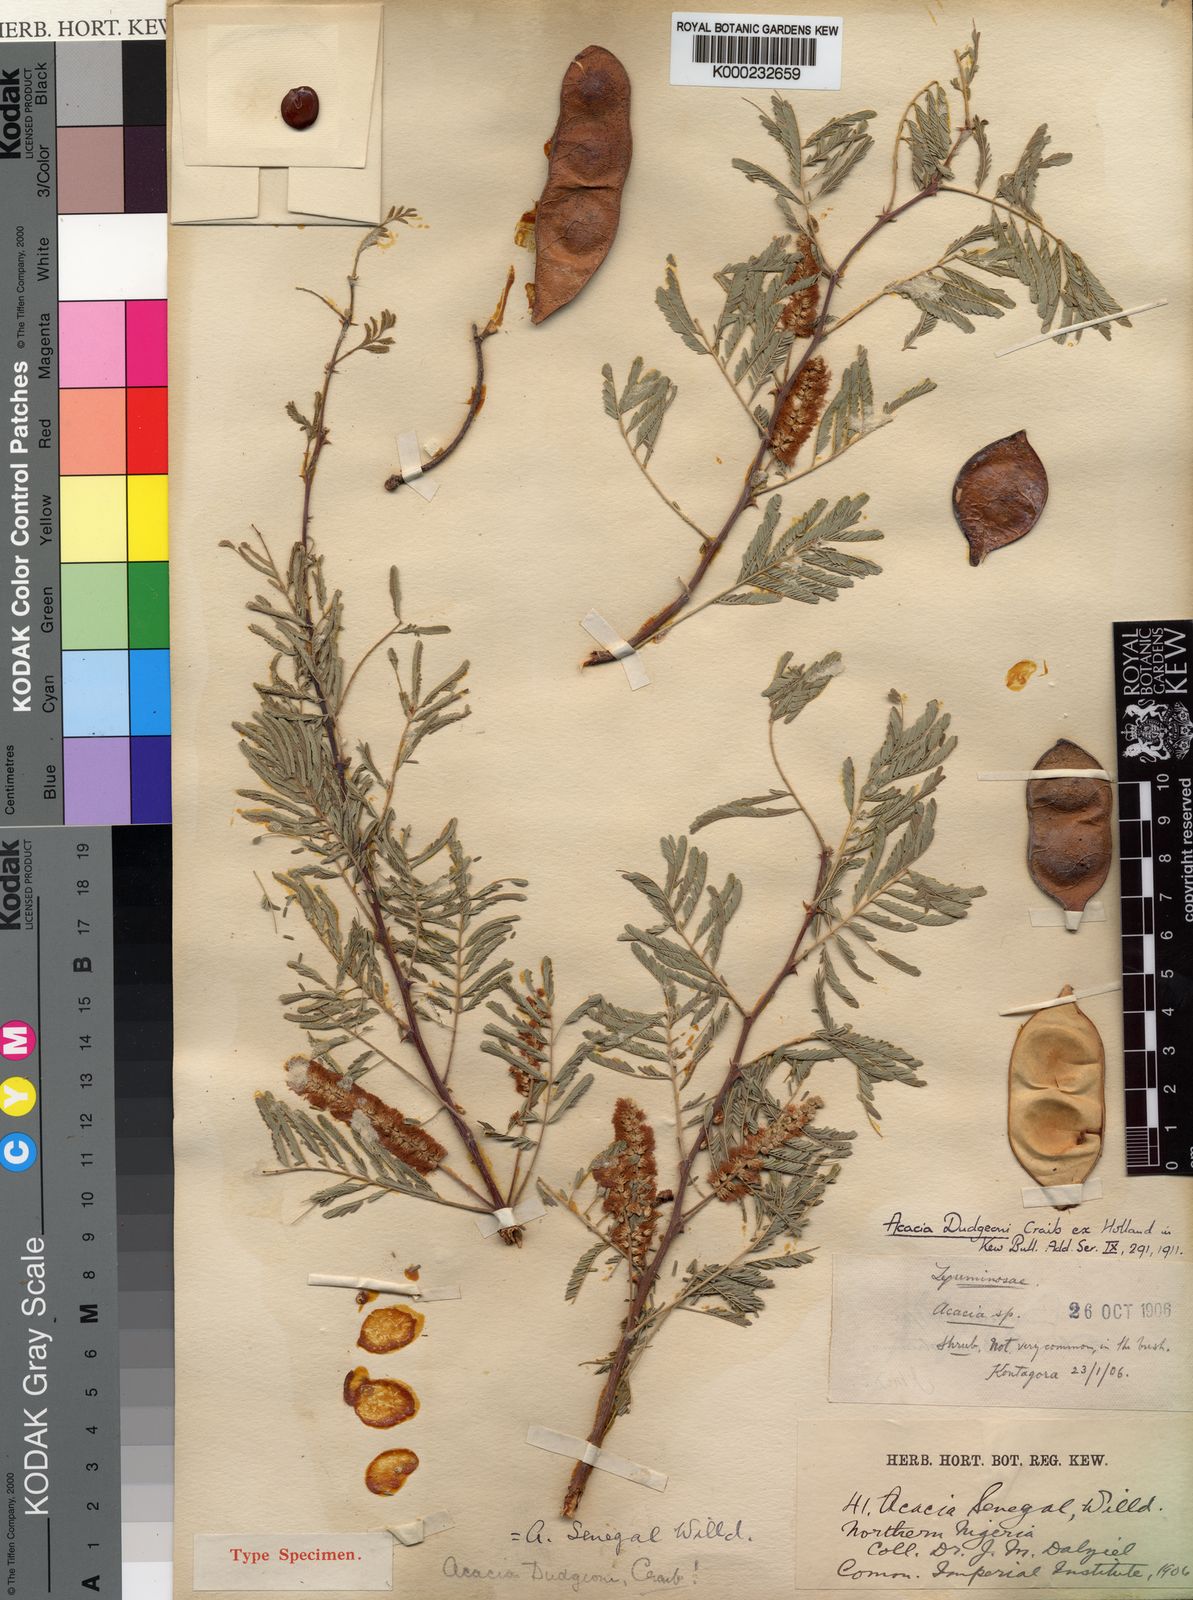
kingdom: Plantae
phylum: Tracheophyta
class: Magnoliopsida
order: Fabales
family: Fabaceae
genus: Acacia
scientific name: Acacia
